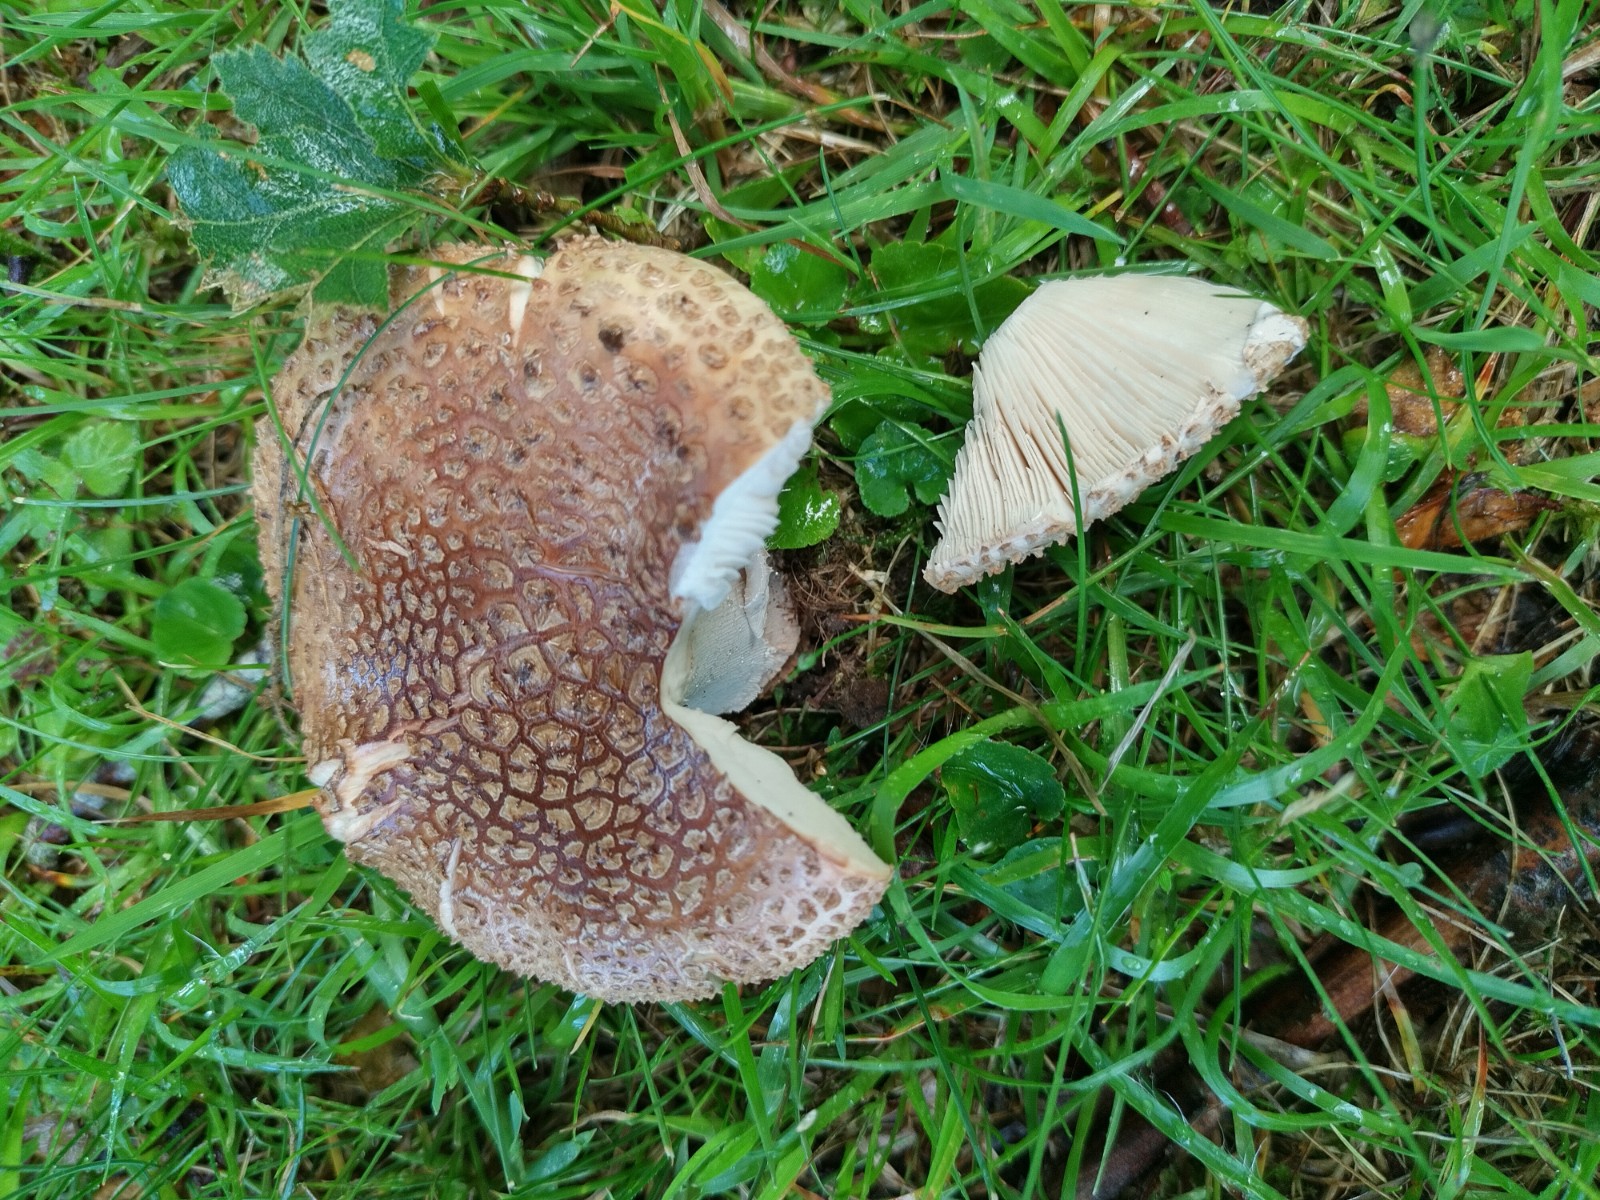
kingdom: Fungi
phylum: Basidiomycota
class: Agaricomycetes
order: Agaricales
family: Amanitaceae
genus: Amanita
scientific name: Amanita rubescens
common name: rødmende fluesvamp
